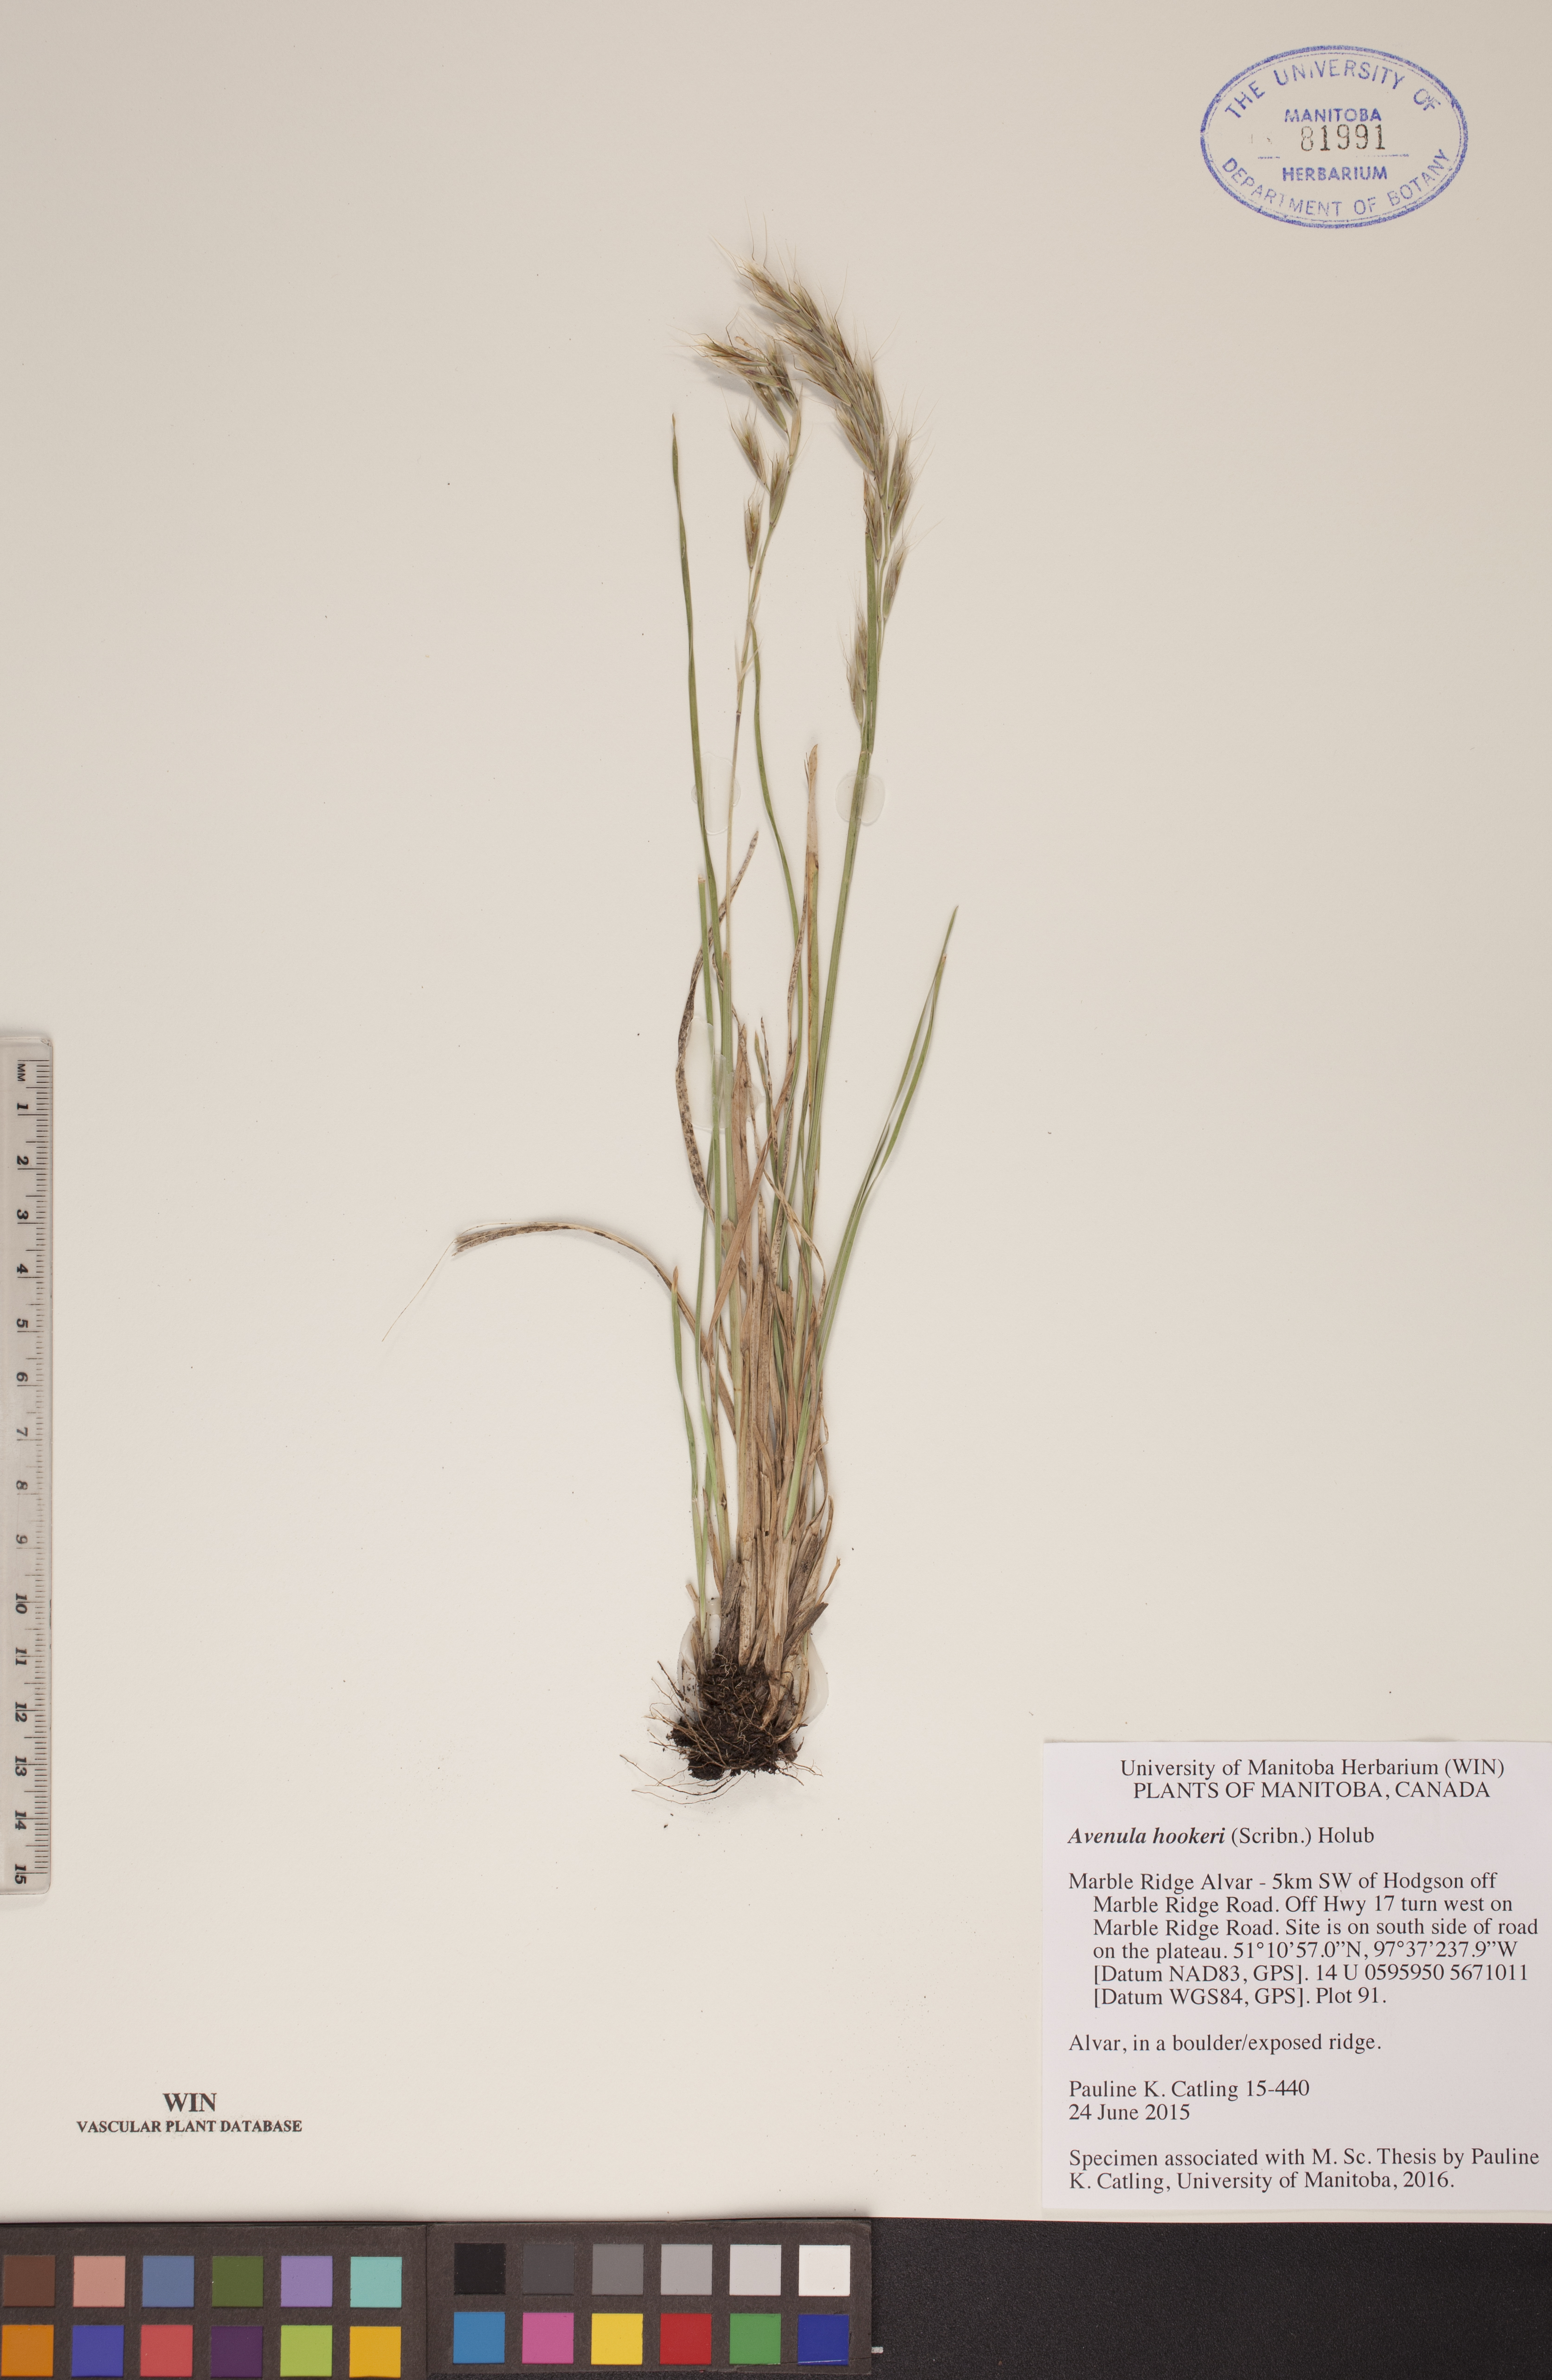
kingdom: Plantae
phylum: Tracheophyta
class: Liliopsida
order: Poales
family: Poaceae
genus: Helictochloa
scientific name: Helictochloa hookeri
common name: Hooker's alpine oatgrass
